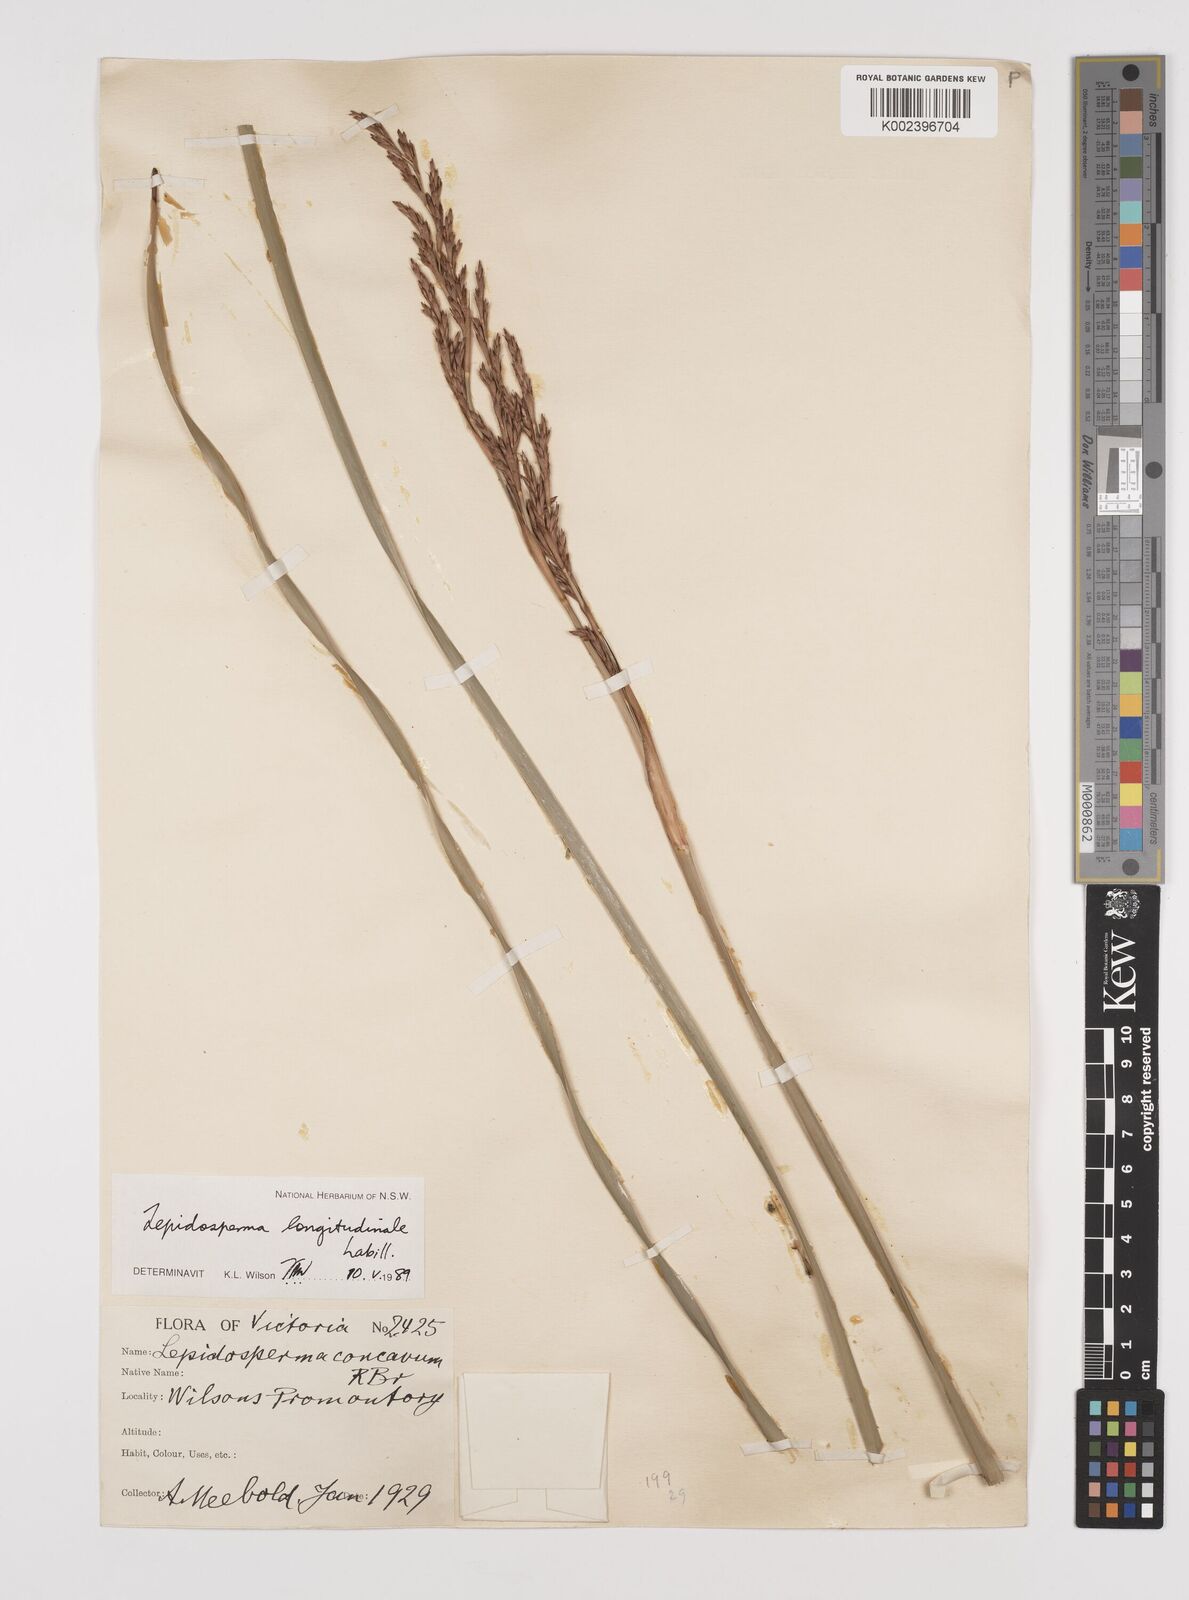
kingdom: Plantae
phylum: Tracheophyta
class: Liliopsida
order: Poales
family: Cyperaceae
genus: Lepidosperma
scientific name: Lepidosperma longitudinale
